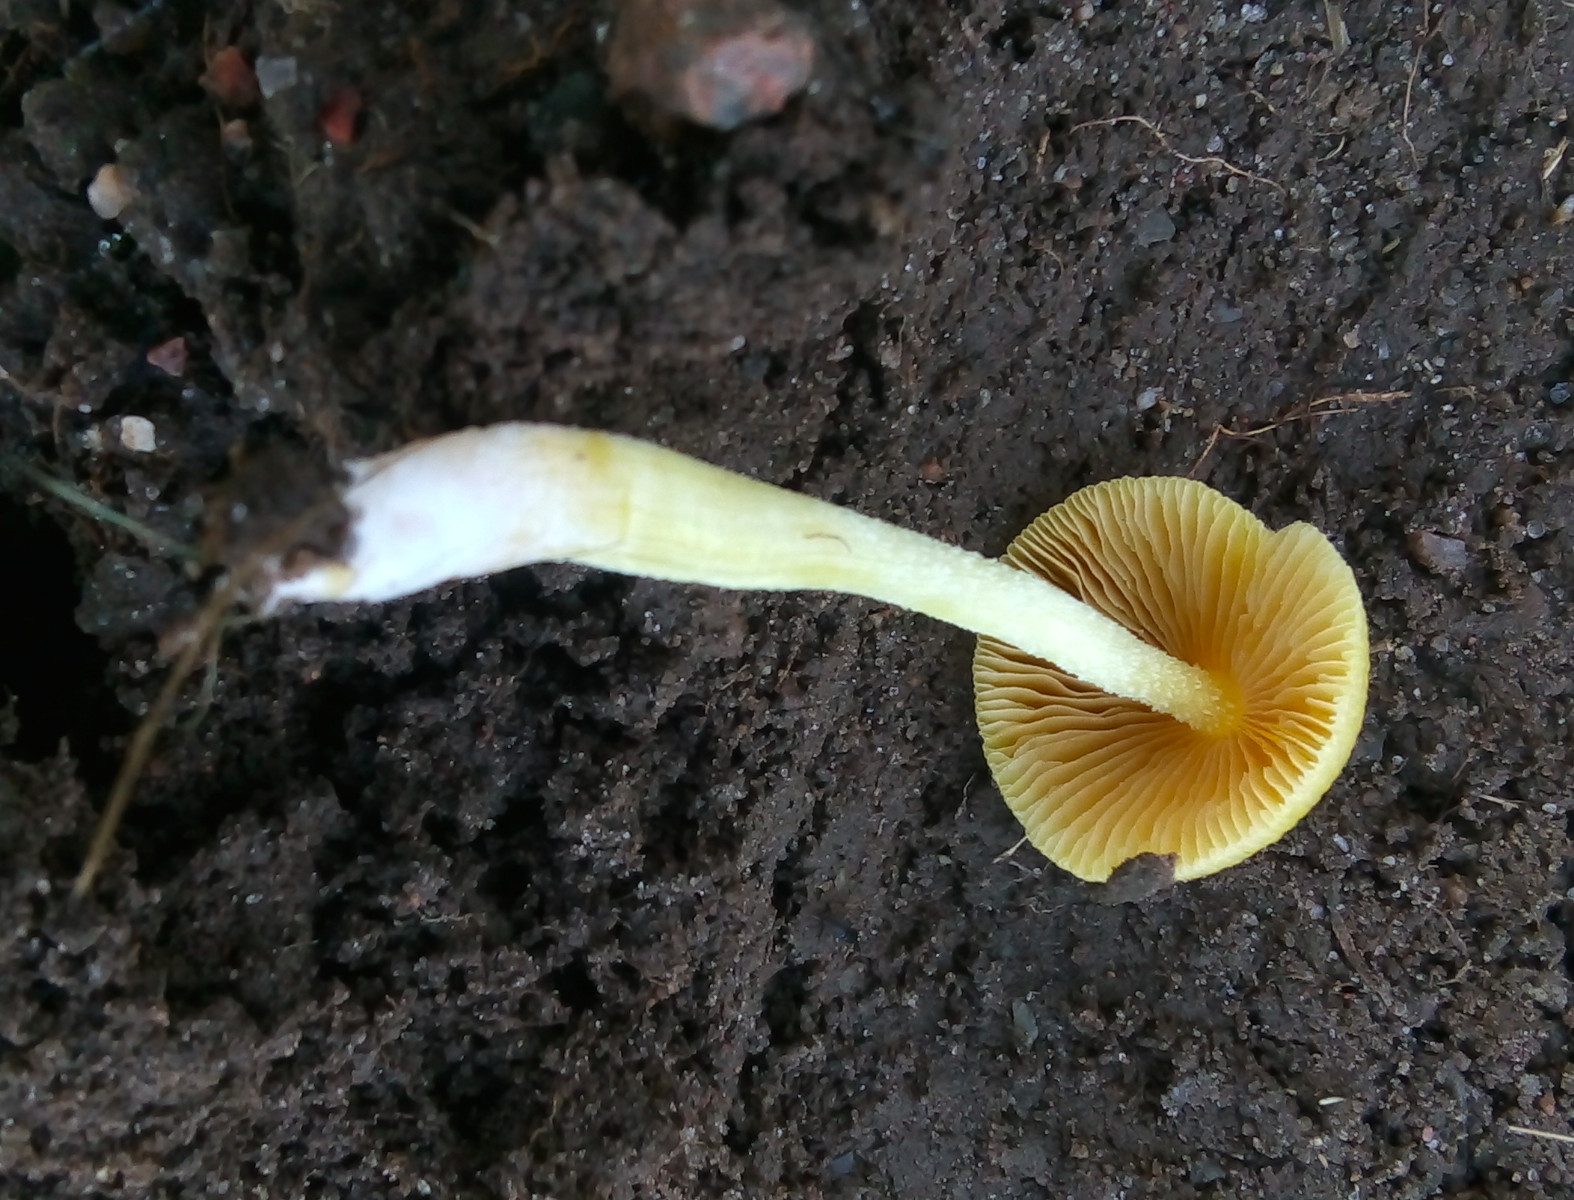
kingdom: Fungi
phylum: Basidiomycota
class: Agaricomycetes
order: Agaricales
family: Bolbitiaceae
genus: Bolbitius
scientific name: Bolbitius titubans
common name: almindelig gulhat
